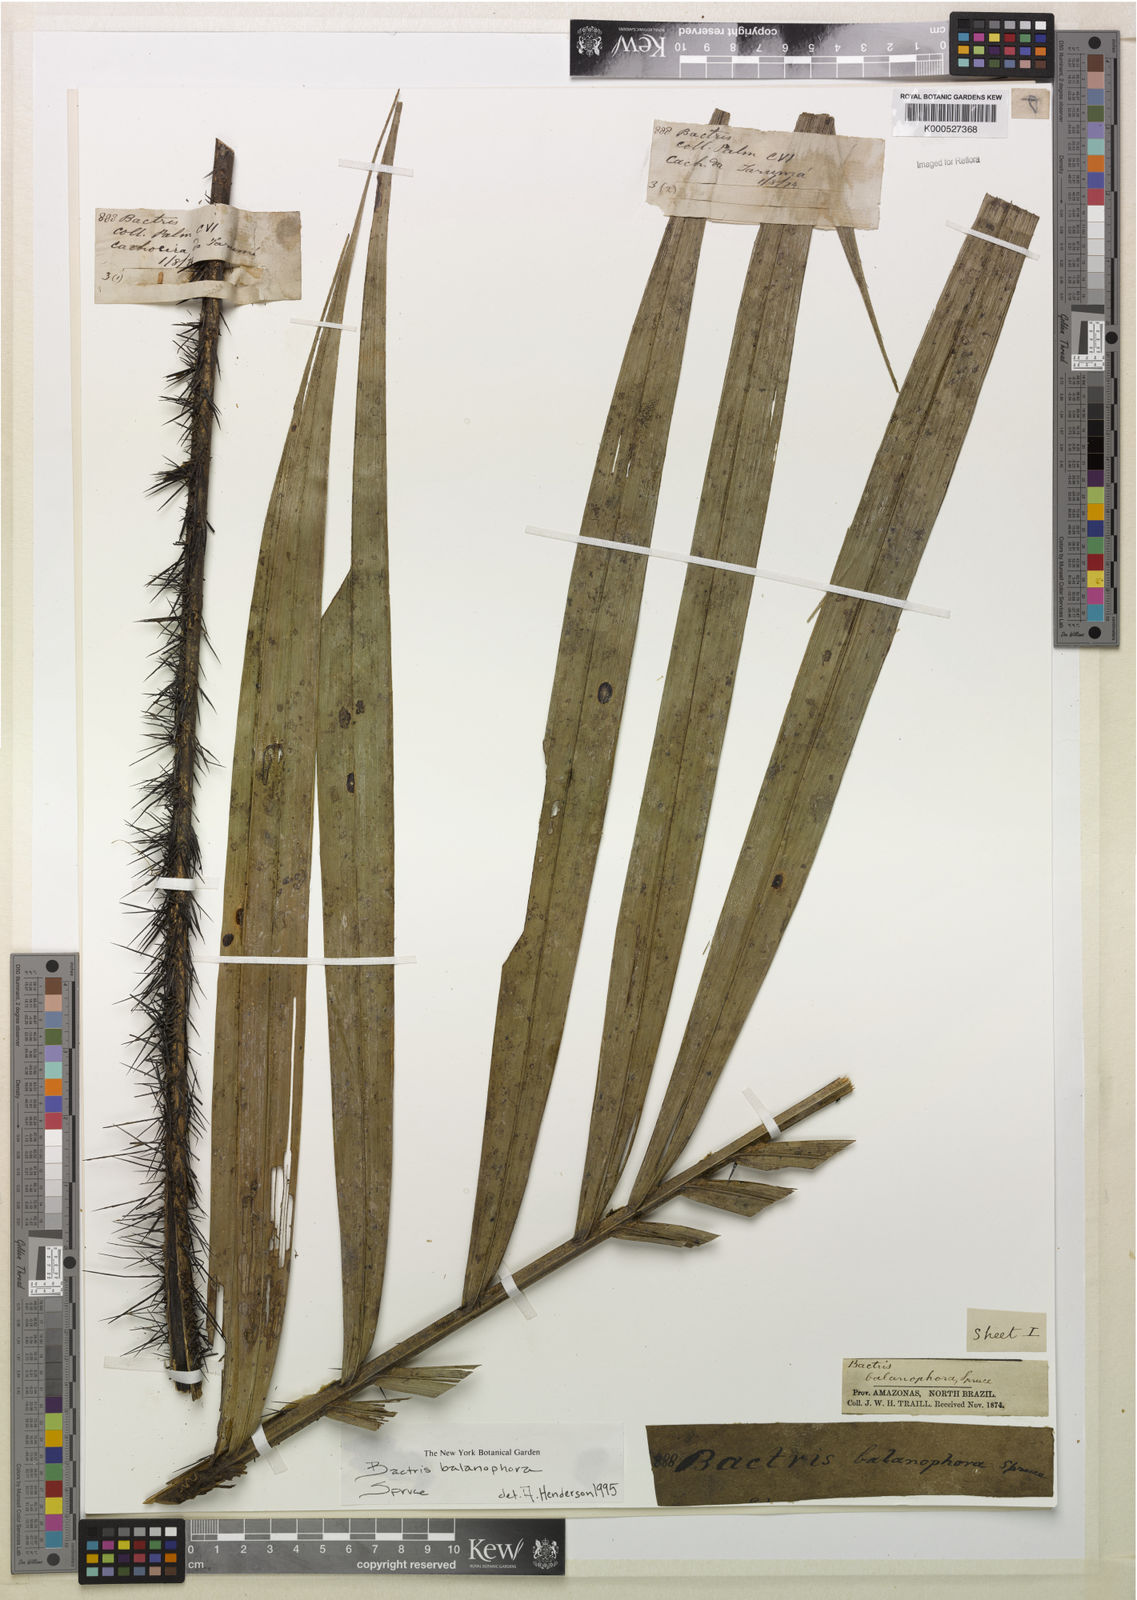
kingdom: Plantae
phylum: Tracheophyta
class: Liliopsida
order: Arecales
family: Arecaceae
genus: Bactris
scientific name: Bactris balanophora
